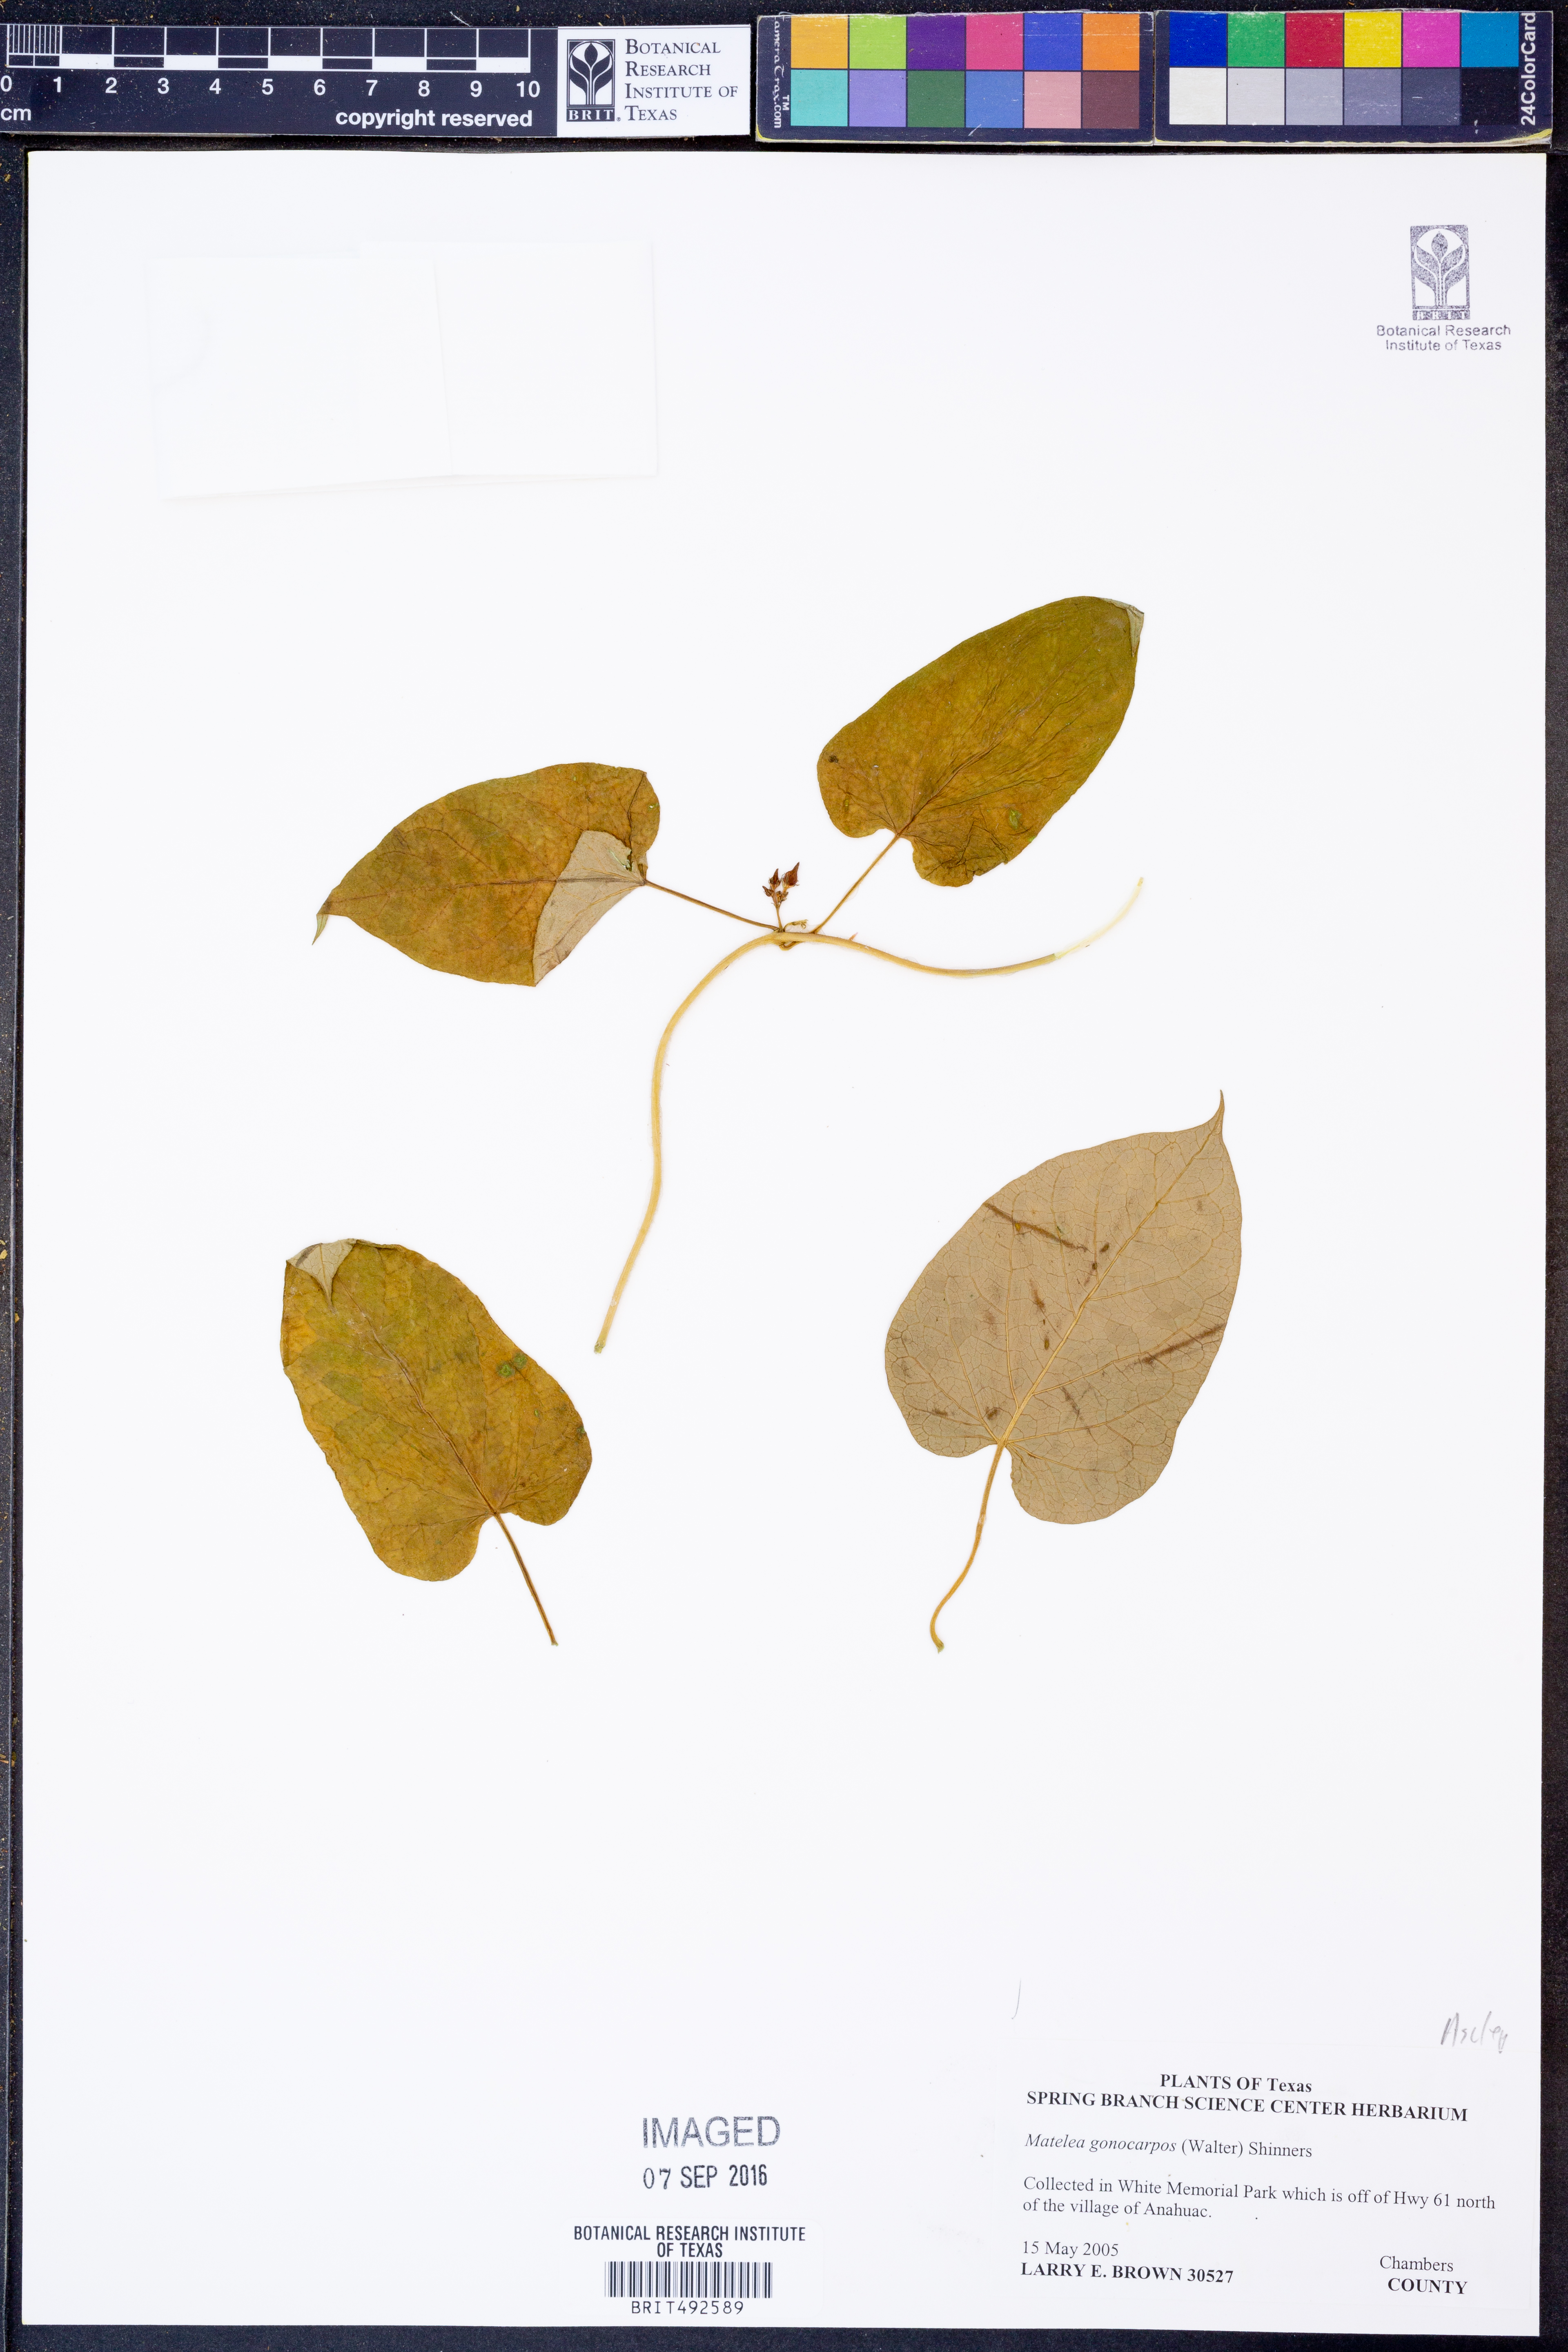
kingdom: Plantae
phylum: Tracheophyta
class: Magnoliopsida
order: Gentianales
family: Apocynaceae
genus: Gonolobus
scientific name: Gonolobus gonocarpus
